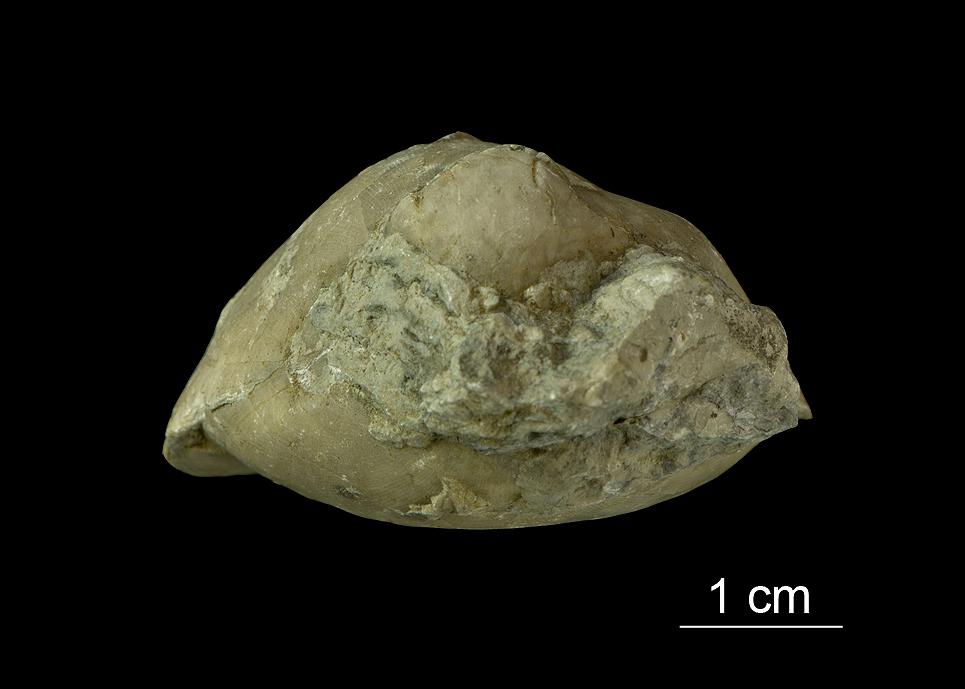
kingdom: Animalia
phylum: Brachiopoda
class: Rhynchonellata
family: Porambonitidae
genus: Porambonites
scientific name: Porambonites
